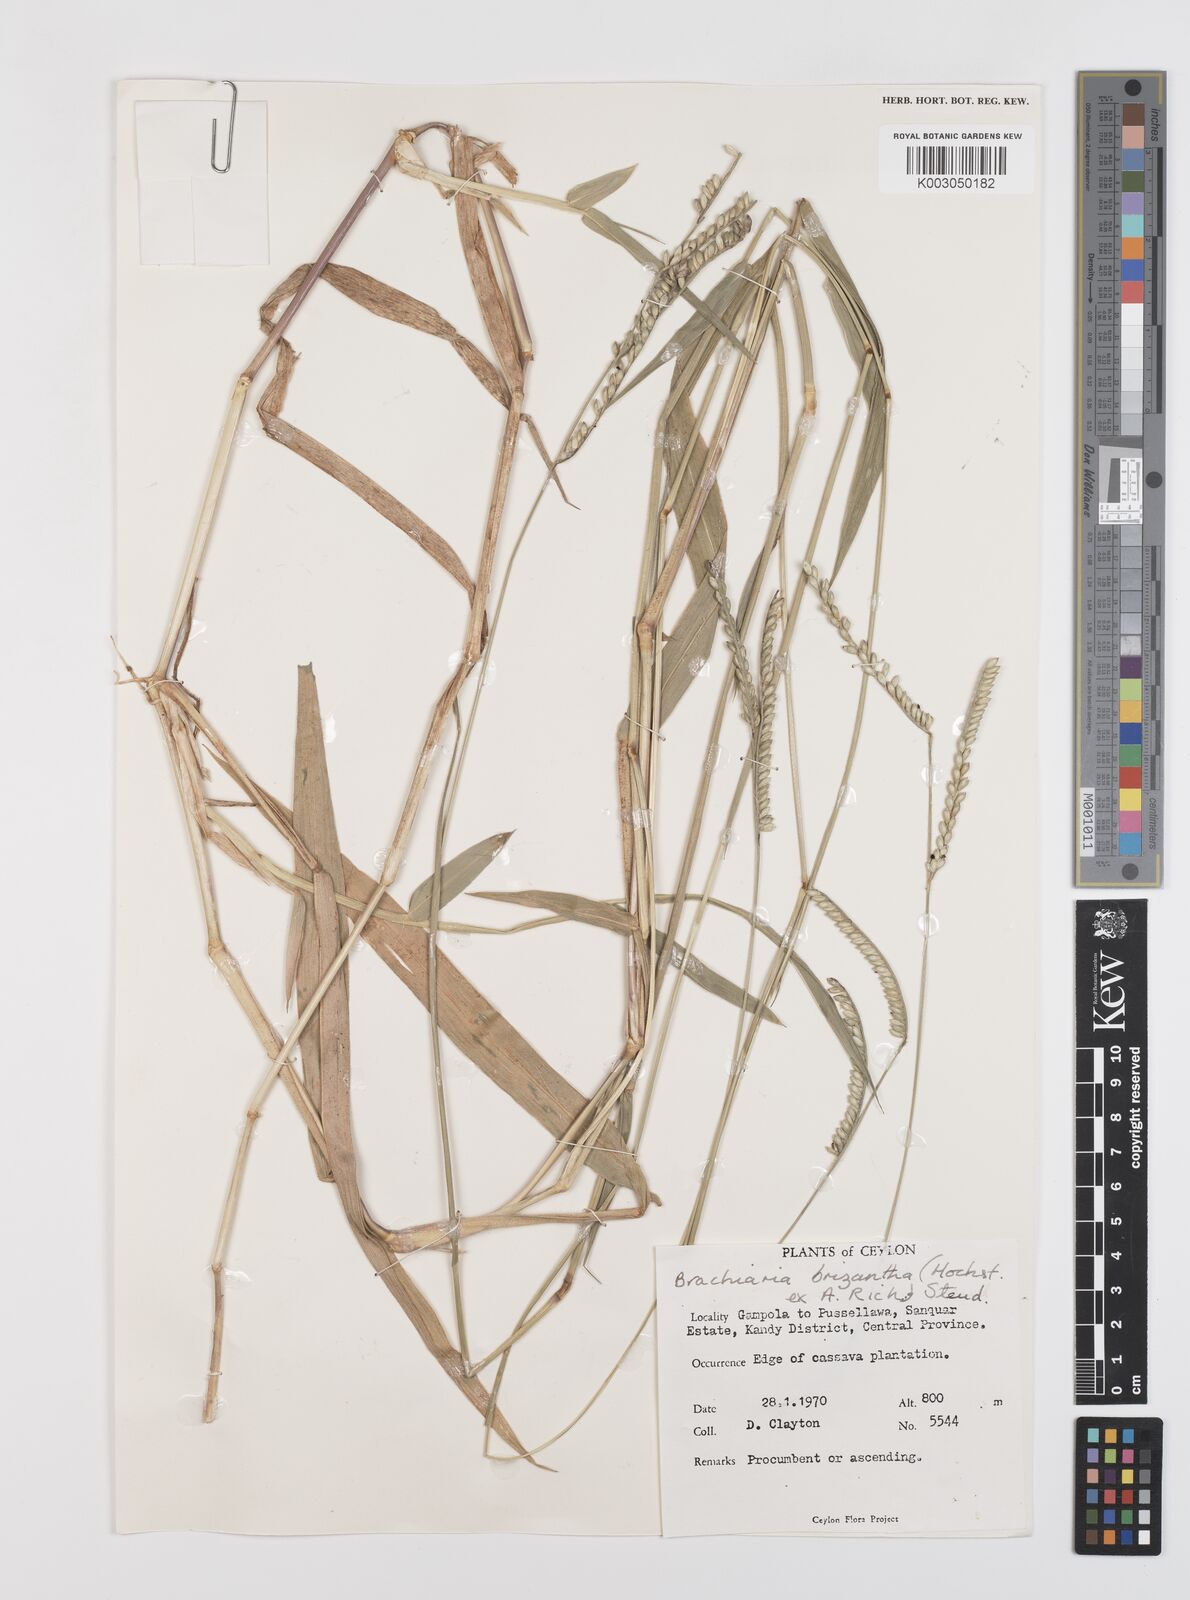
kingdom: Plantae
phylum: Tracheophyta
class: Liliopsida
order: Poales
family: Poaceae
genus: Urochloa
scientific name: Urochloa eminii
